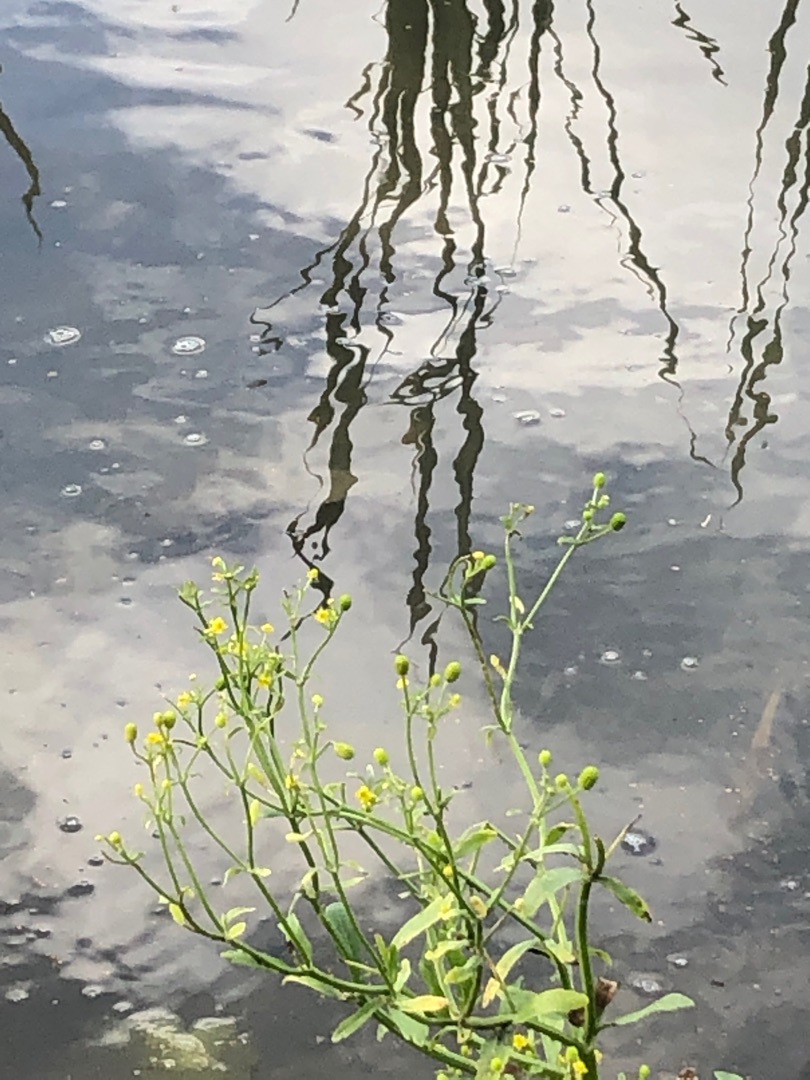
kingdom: Plantae
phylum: Tracheophyta
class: Magnoliopsida
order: Ranunculales
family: Ranunculaceae
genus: Ranunculus
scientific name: Ranunculus sceleratus
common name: Tigger-ranunkel
